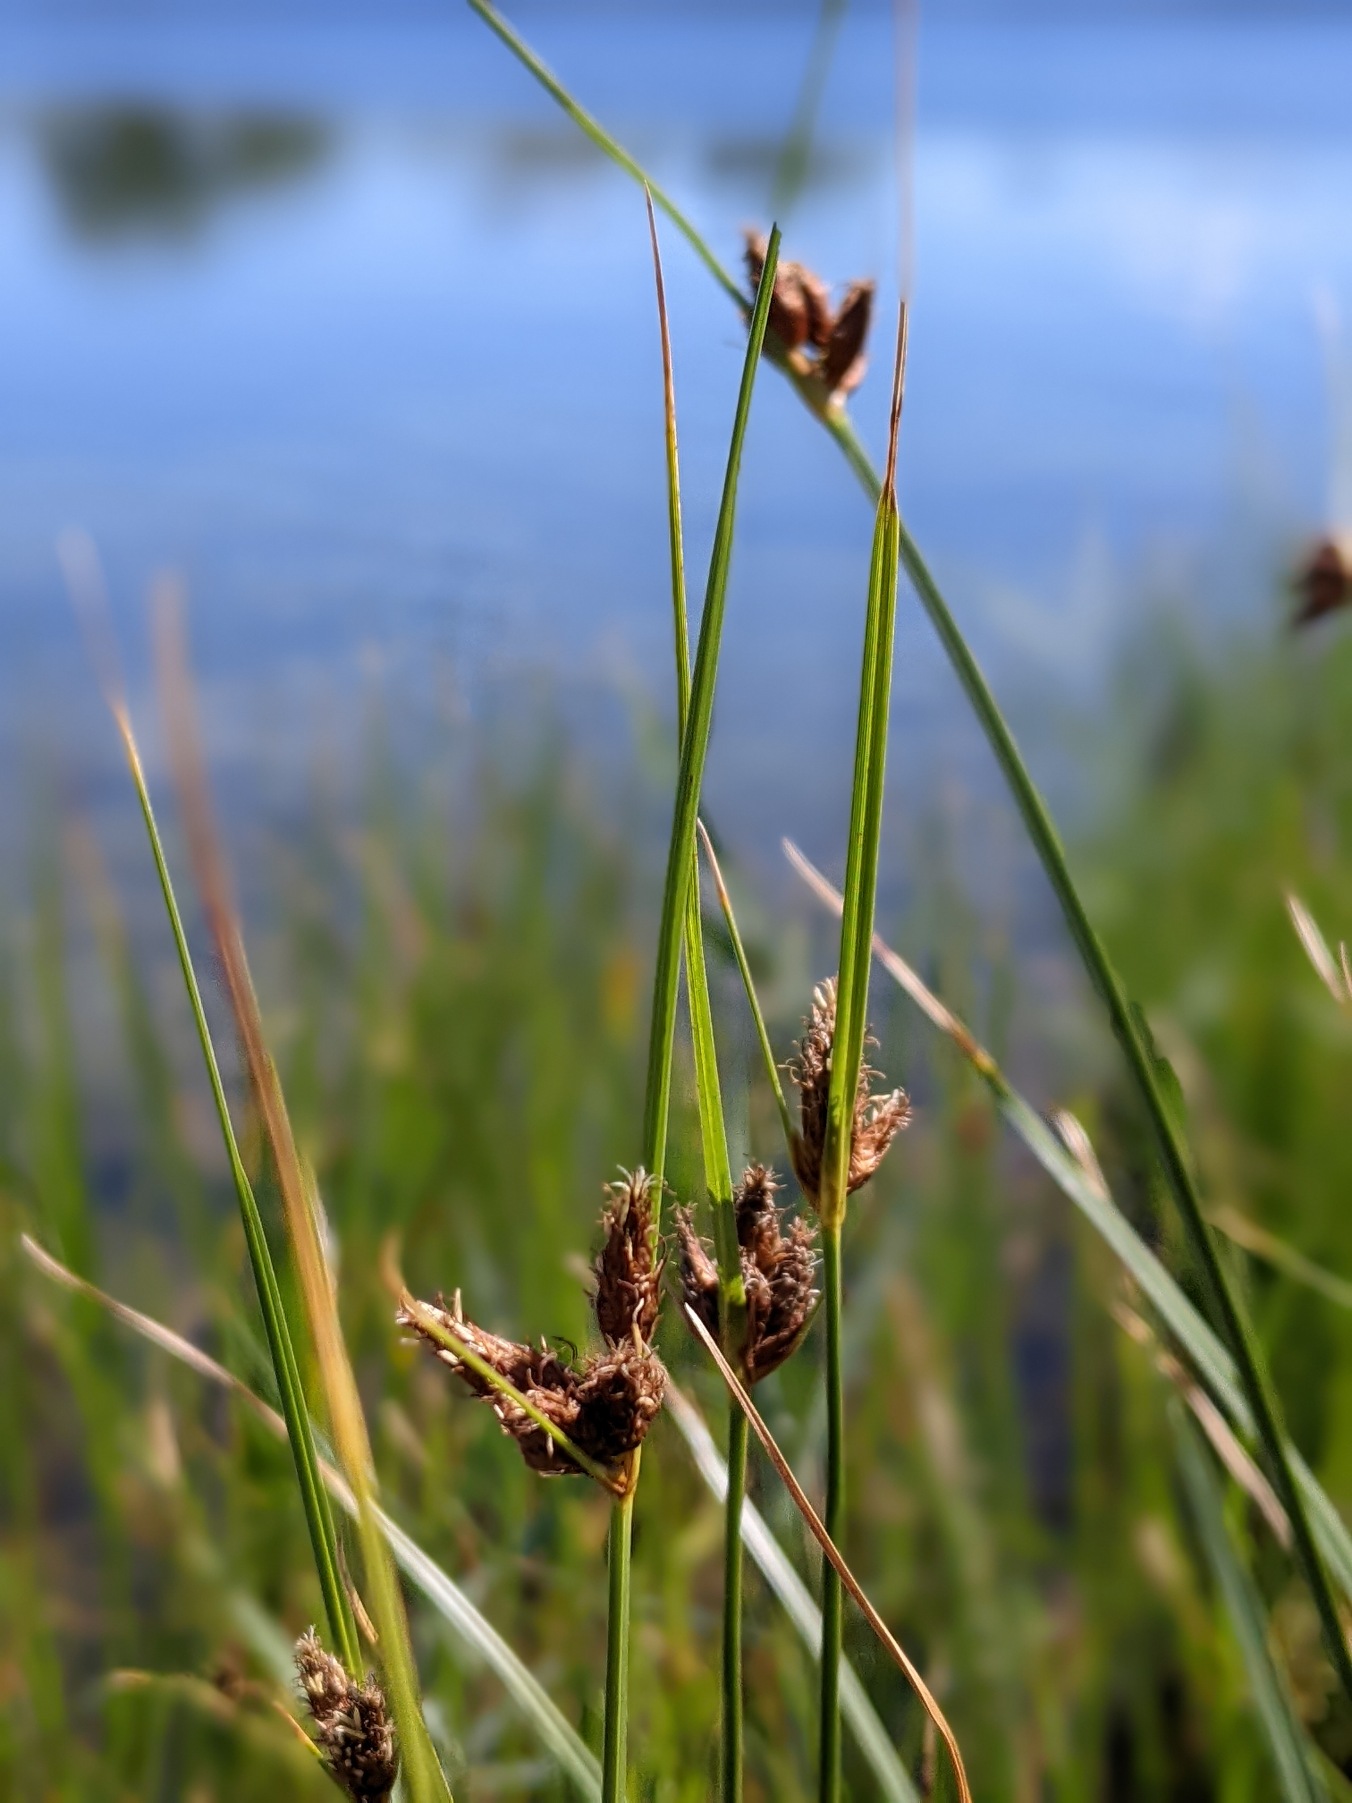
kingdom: Plantae
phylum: Tracheophyta
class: Liliopsida
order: Poales
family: Cyperaceae
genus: Bolboschoenus
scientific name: Bolboschoenus maritimus
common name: Strand-kogleaks
